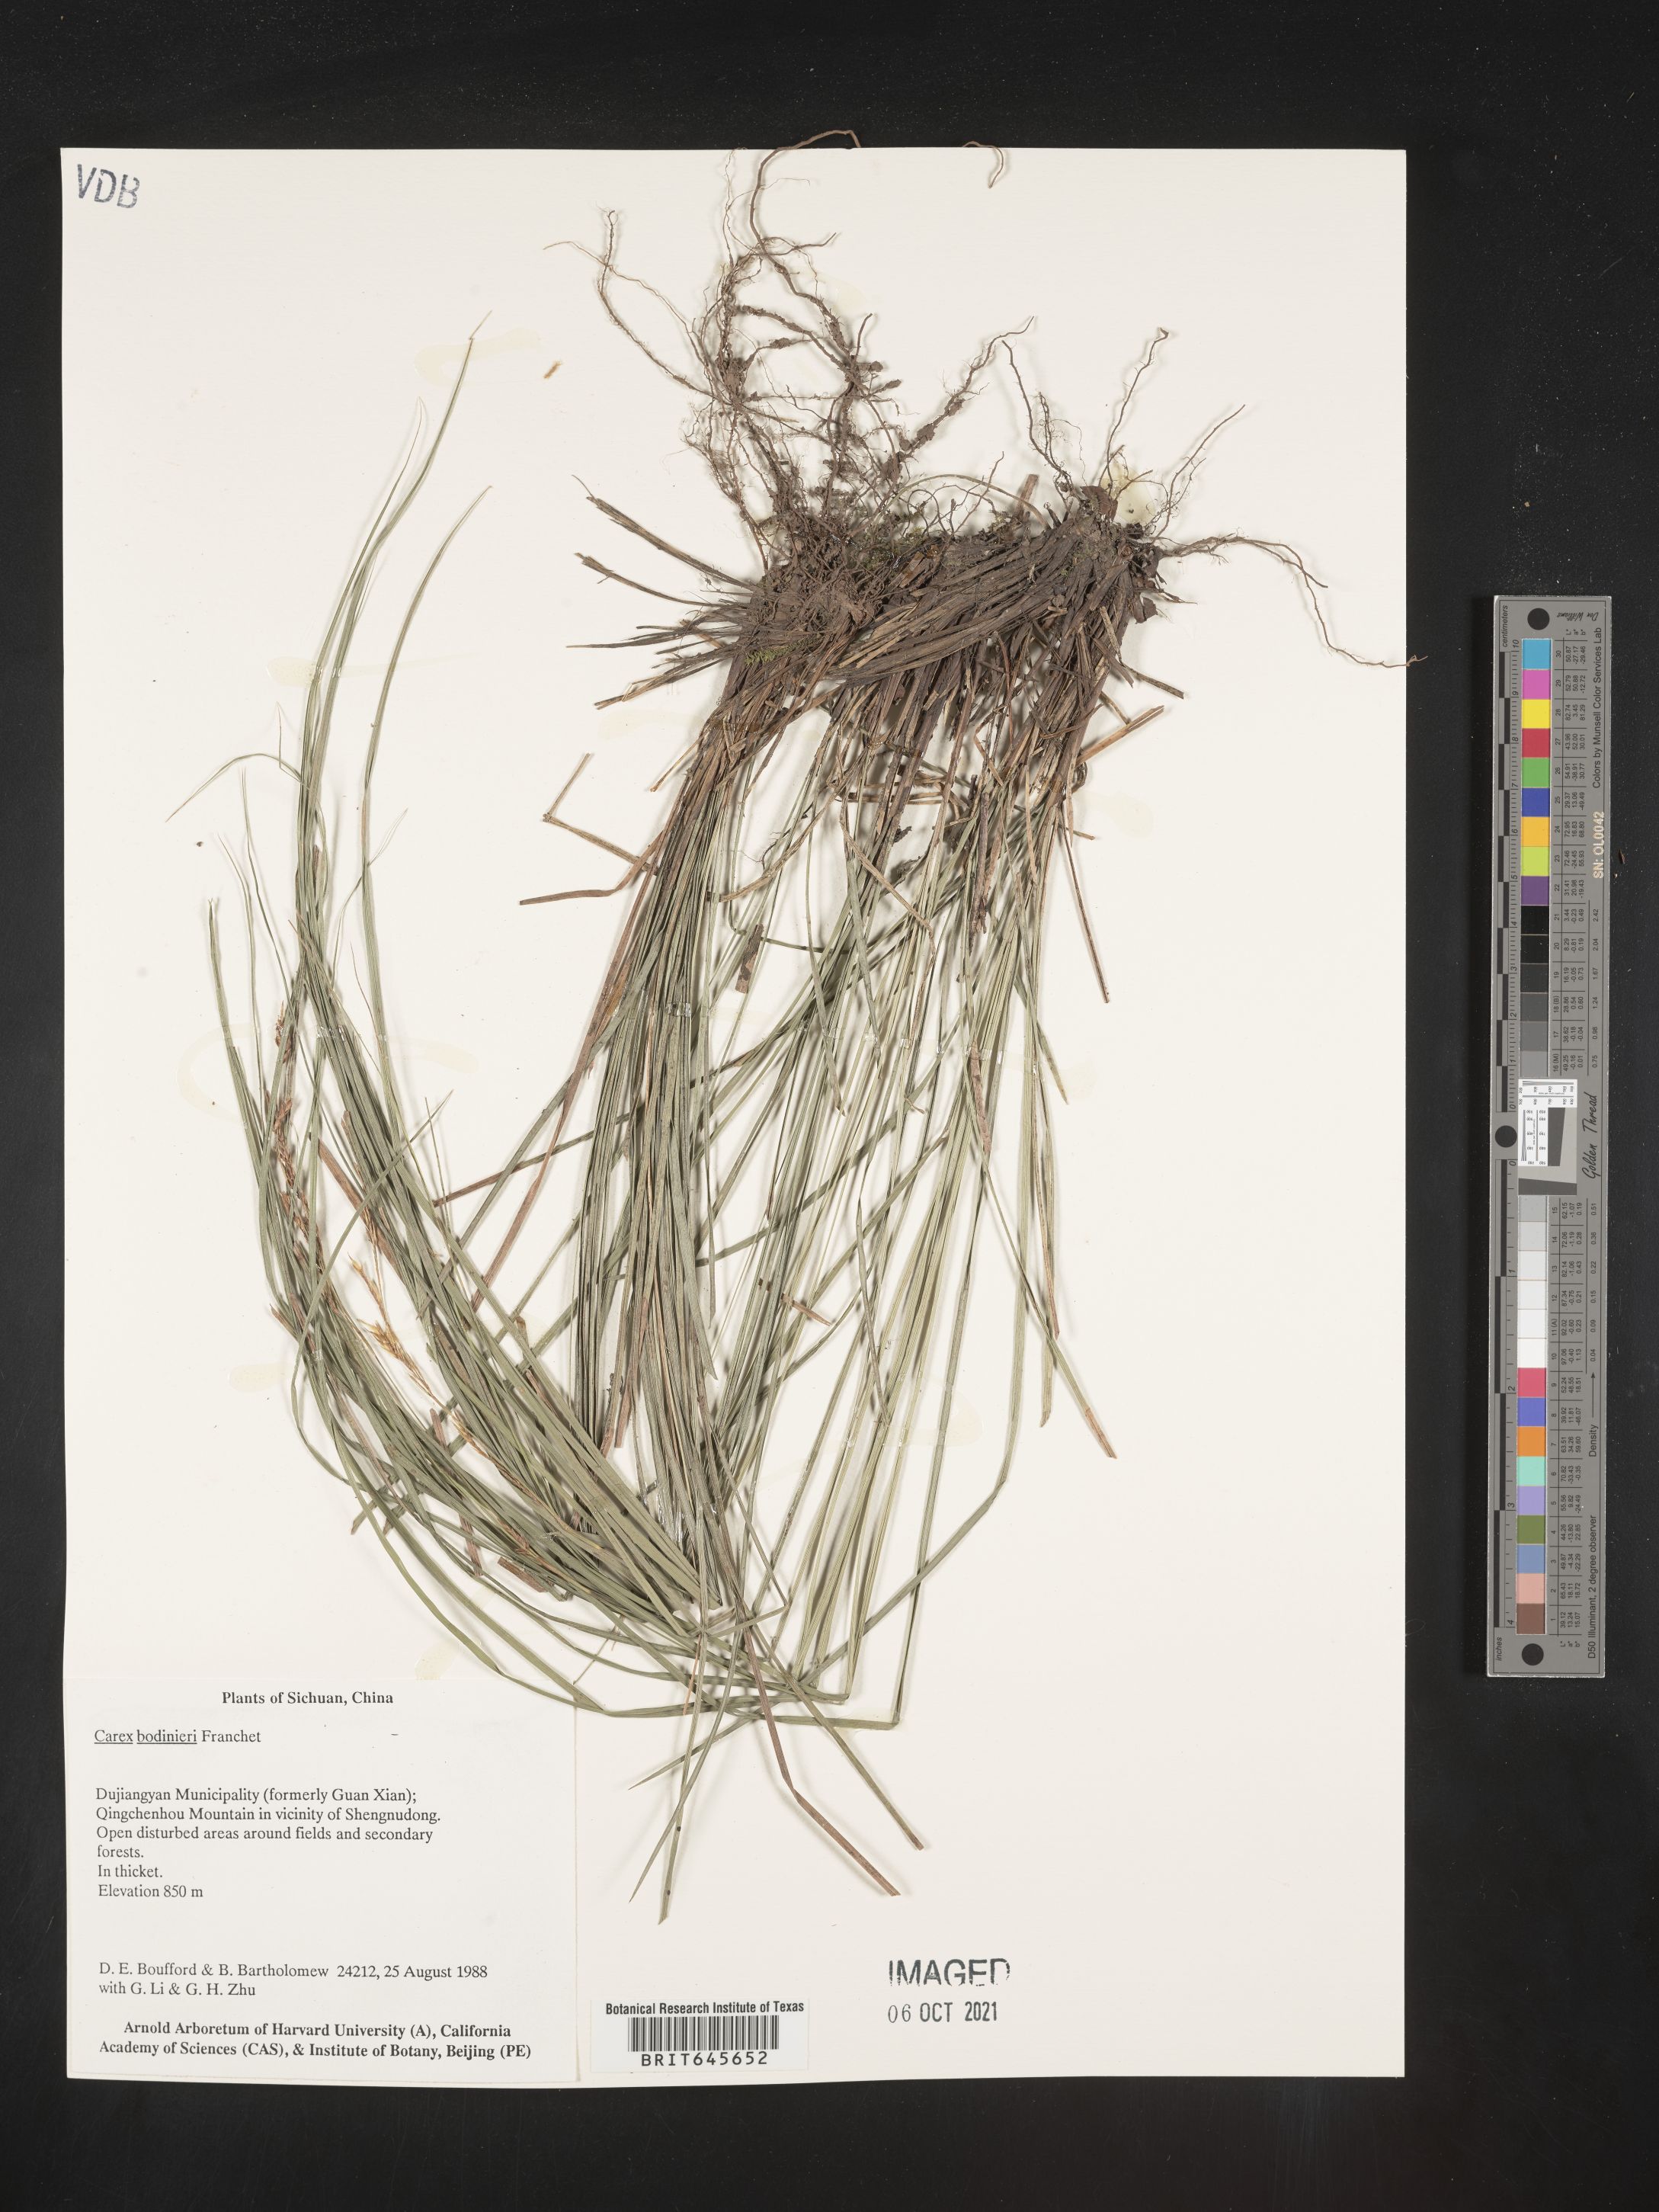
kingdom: Plantae
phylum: Tracheophyta
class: Liliopsida
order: Poales
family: Cyperaceae
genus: Carex
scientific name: Carex bodinieri
